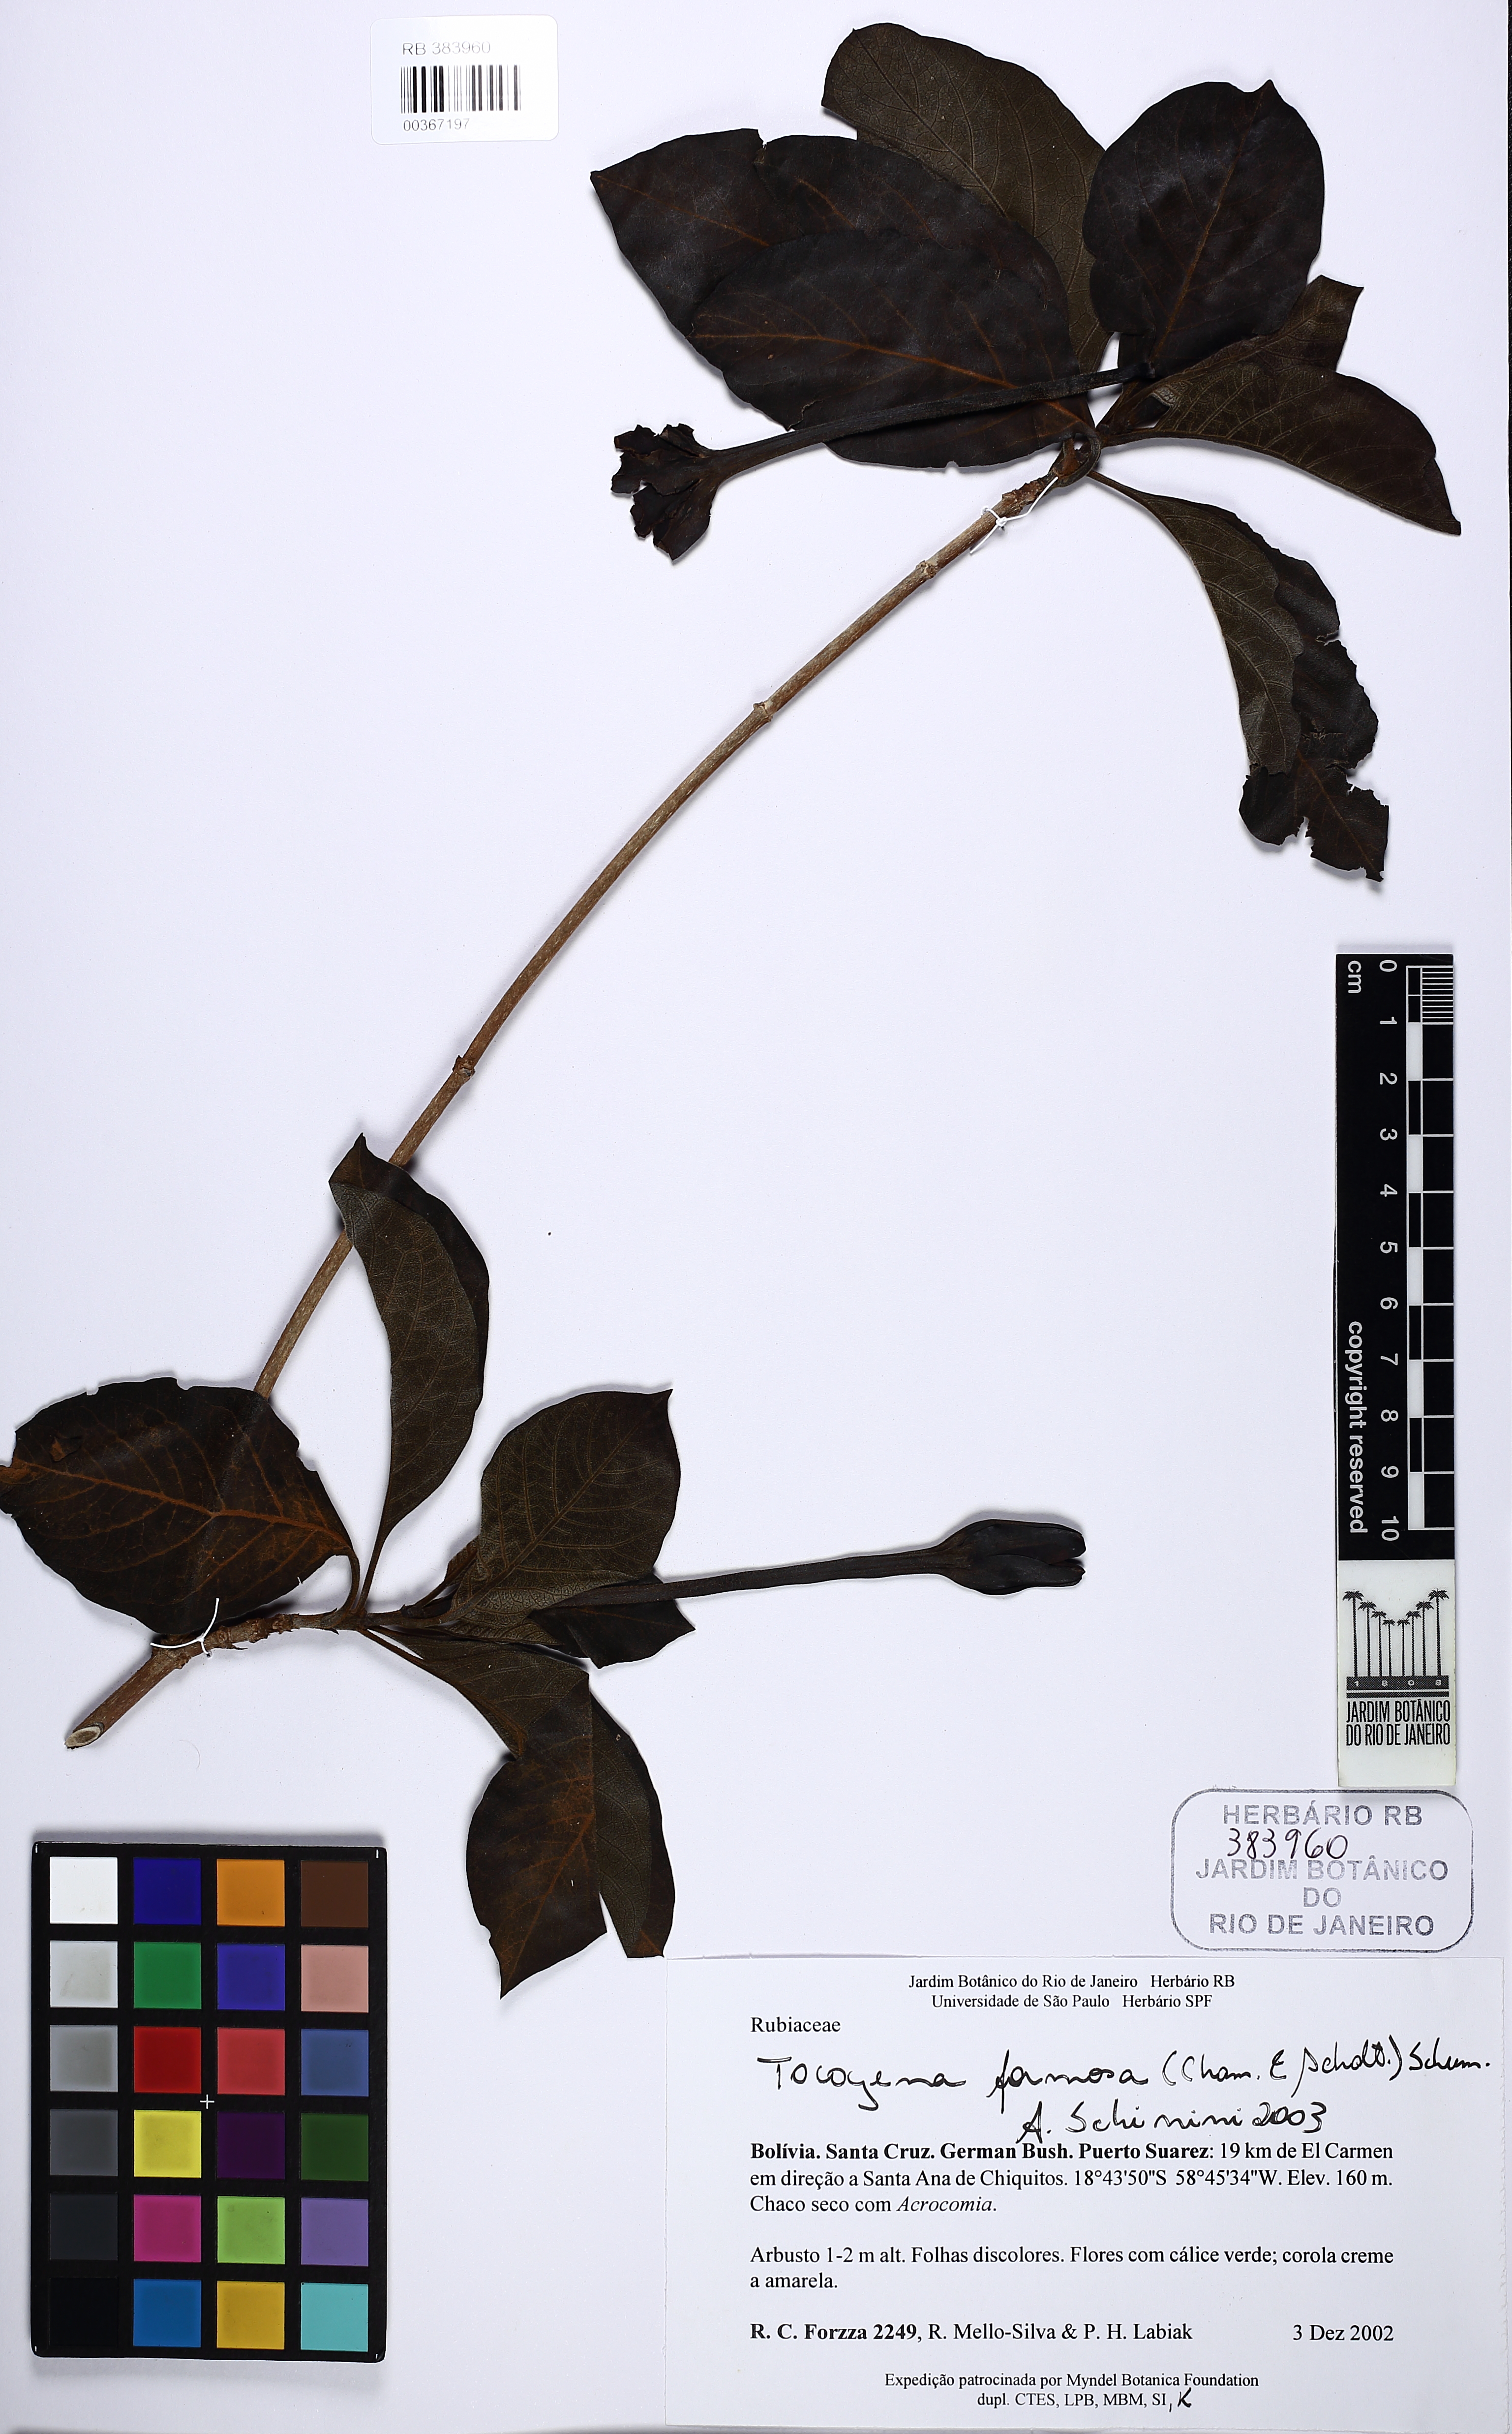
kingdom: Plantae
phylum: Tracheophyta
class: Magnoliopsida
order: Gentianales
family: Rubiaceae
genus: Tocoyena
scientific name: Tocoyena formosa
